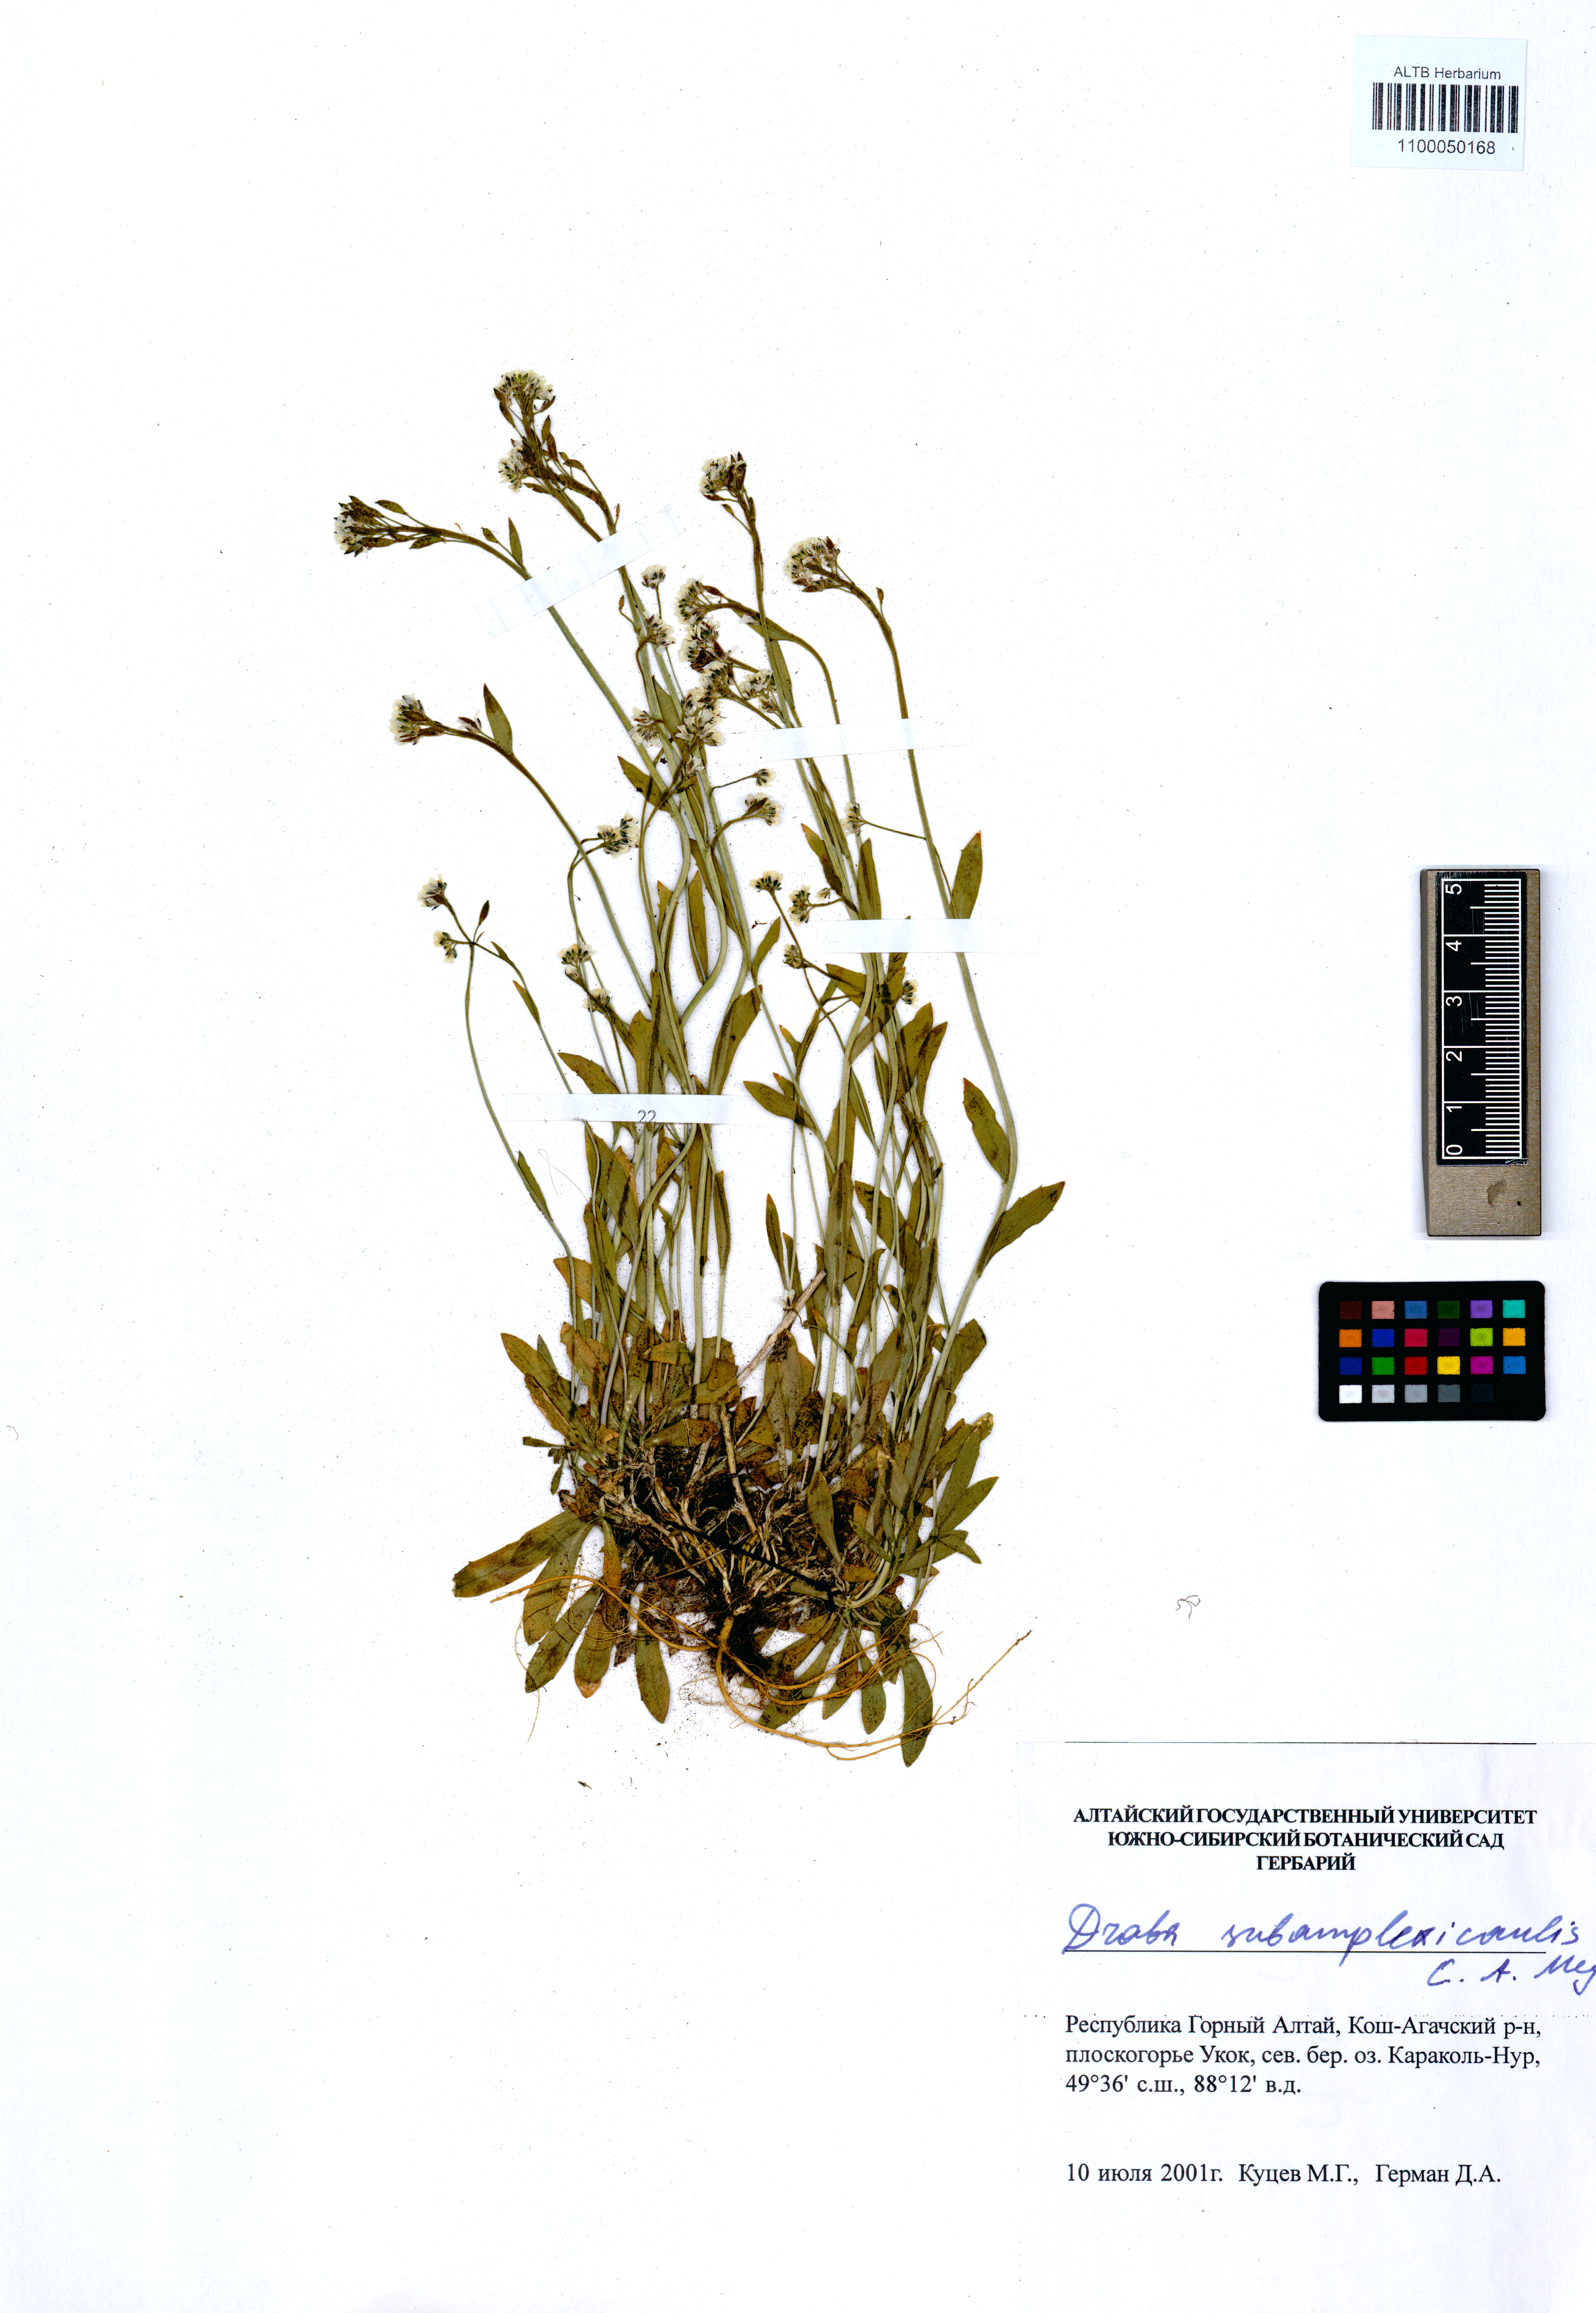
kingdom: Plantae
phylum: Tracheophyta
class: Magnoliopsida
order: Brassicales
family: Brassicaceae
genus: Draba
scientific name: Draba subamplexicaulis
